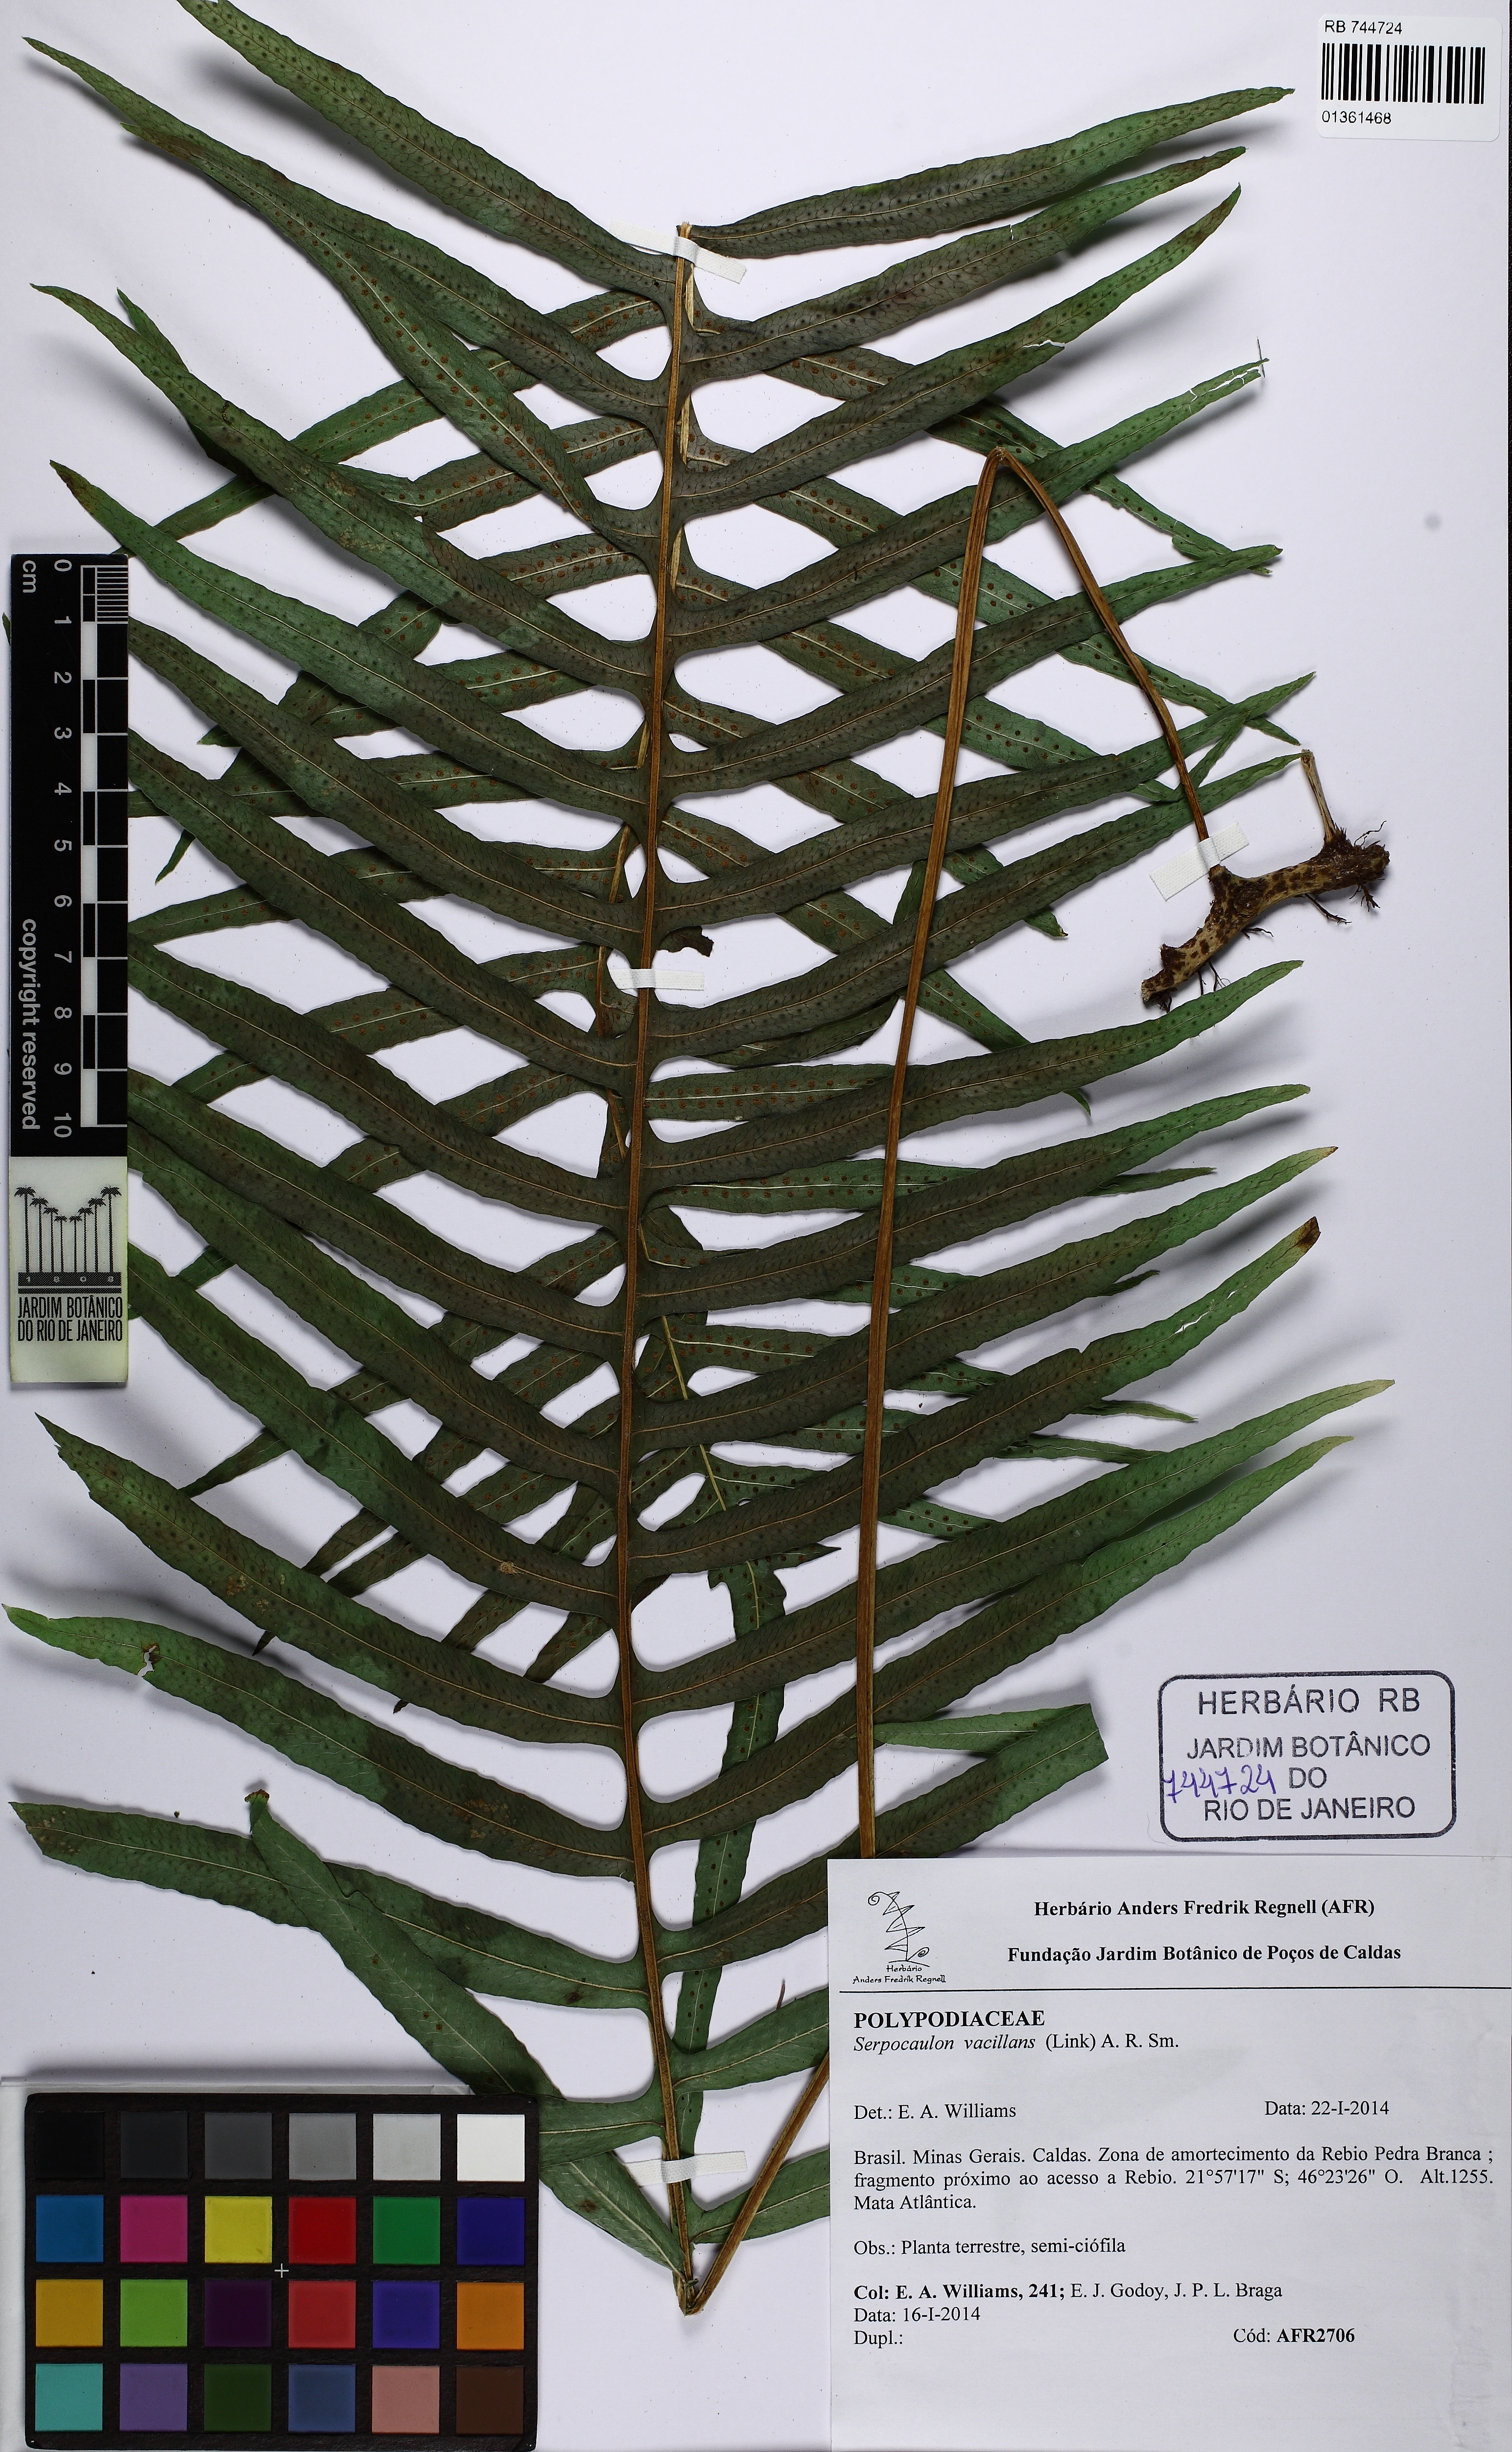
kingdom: Plantae
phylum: Tracheophyta
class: Polypodiopsida
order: Polypodiales
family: Polypodiaceae
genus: Serpocaulon
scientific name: Serpocaulon vacillans
